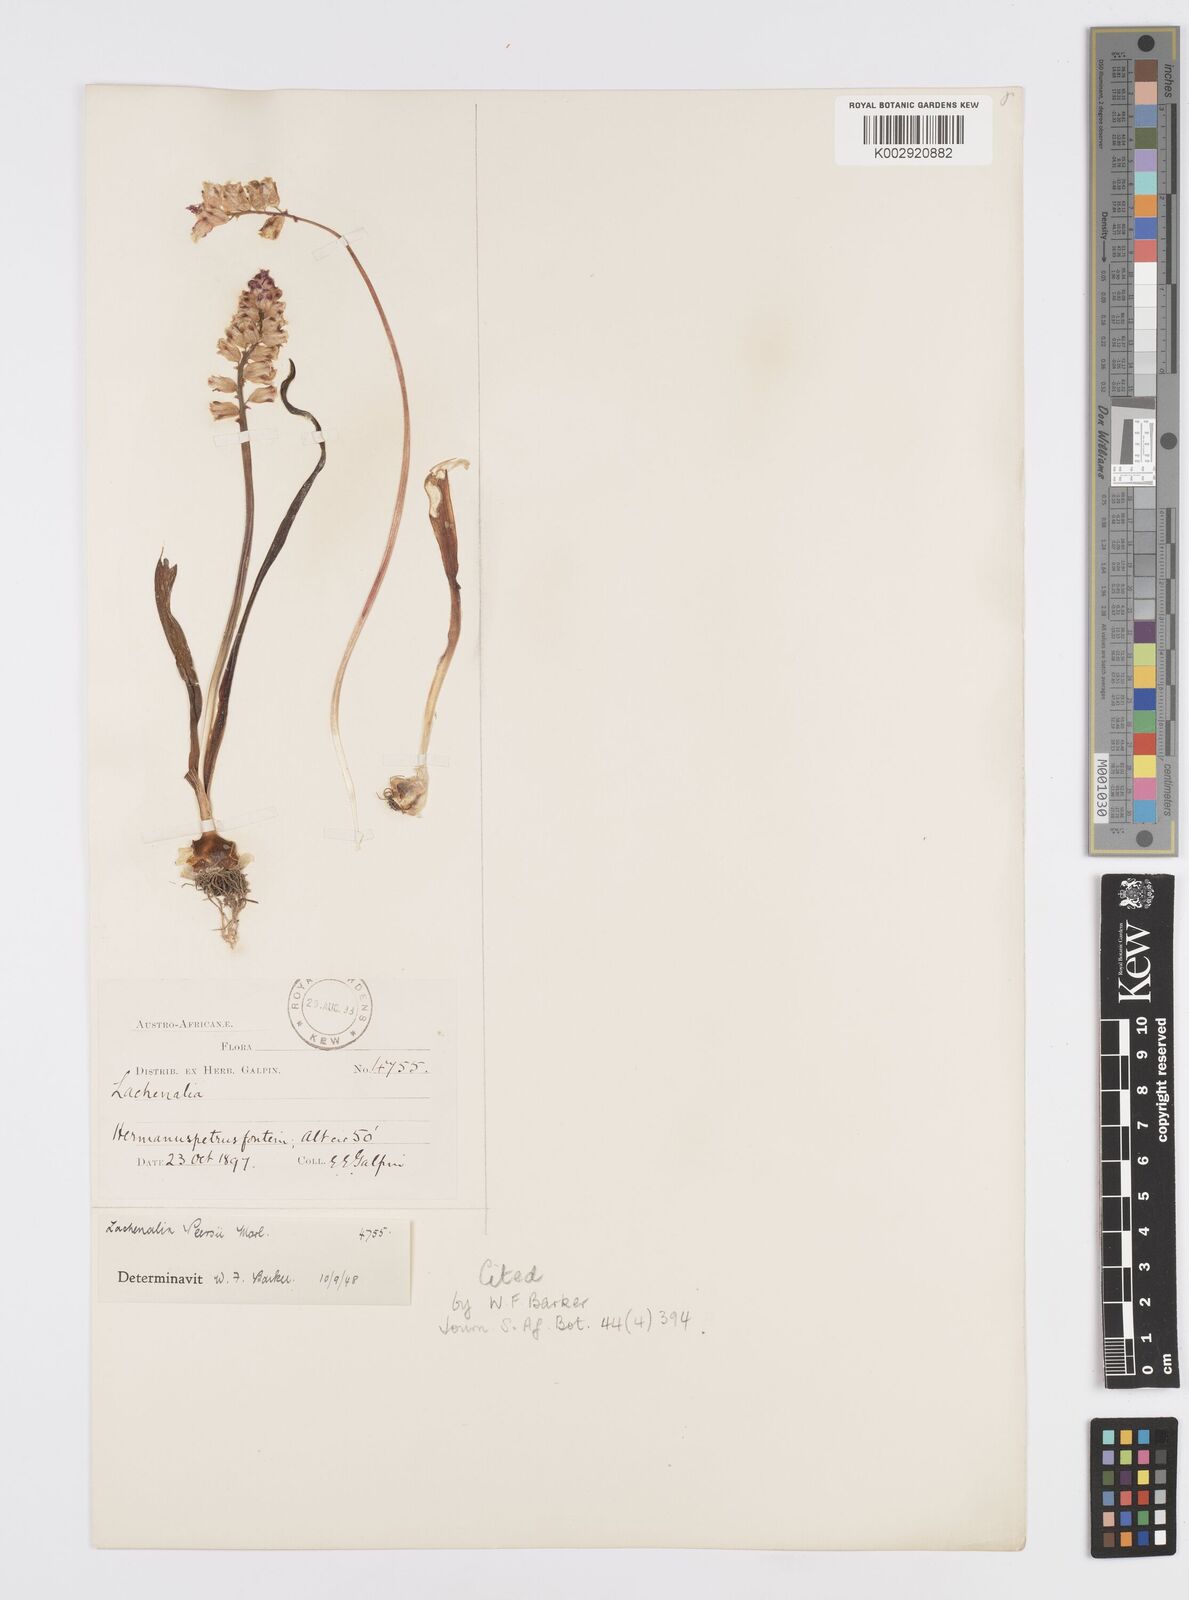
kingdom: Plantae
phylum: Tracheophyta
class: Liliopsida
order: Asparagales
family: Asparagaceae
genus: Lachenalia
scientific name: Lachenalia peersii
